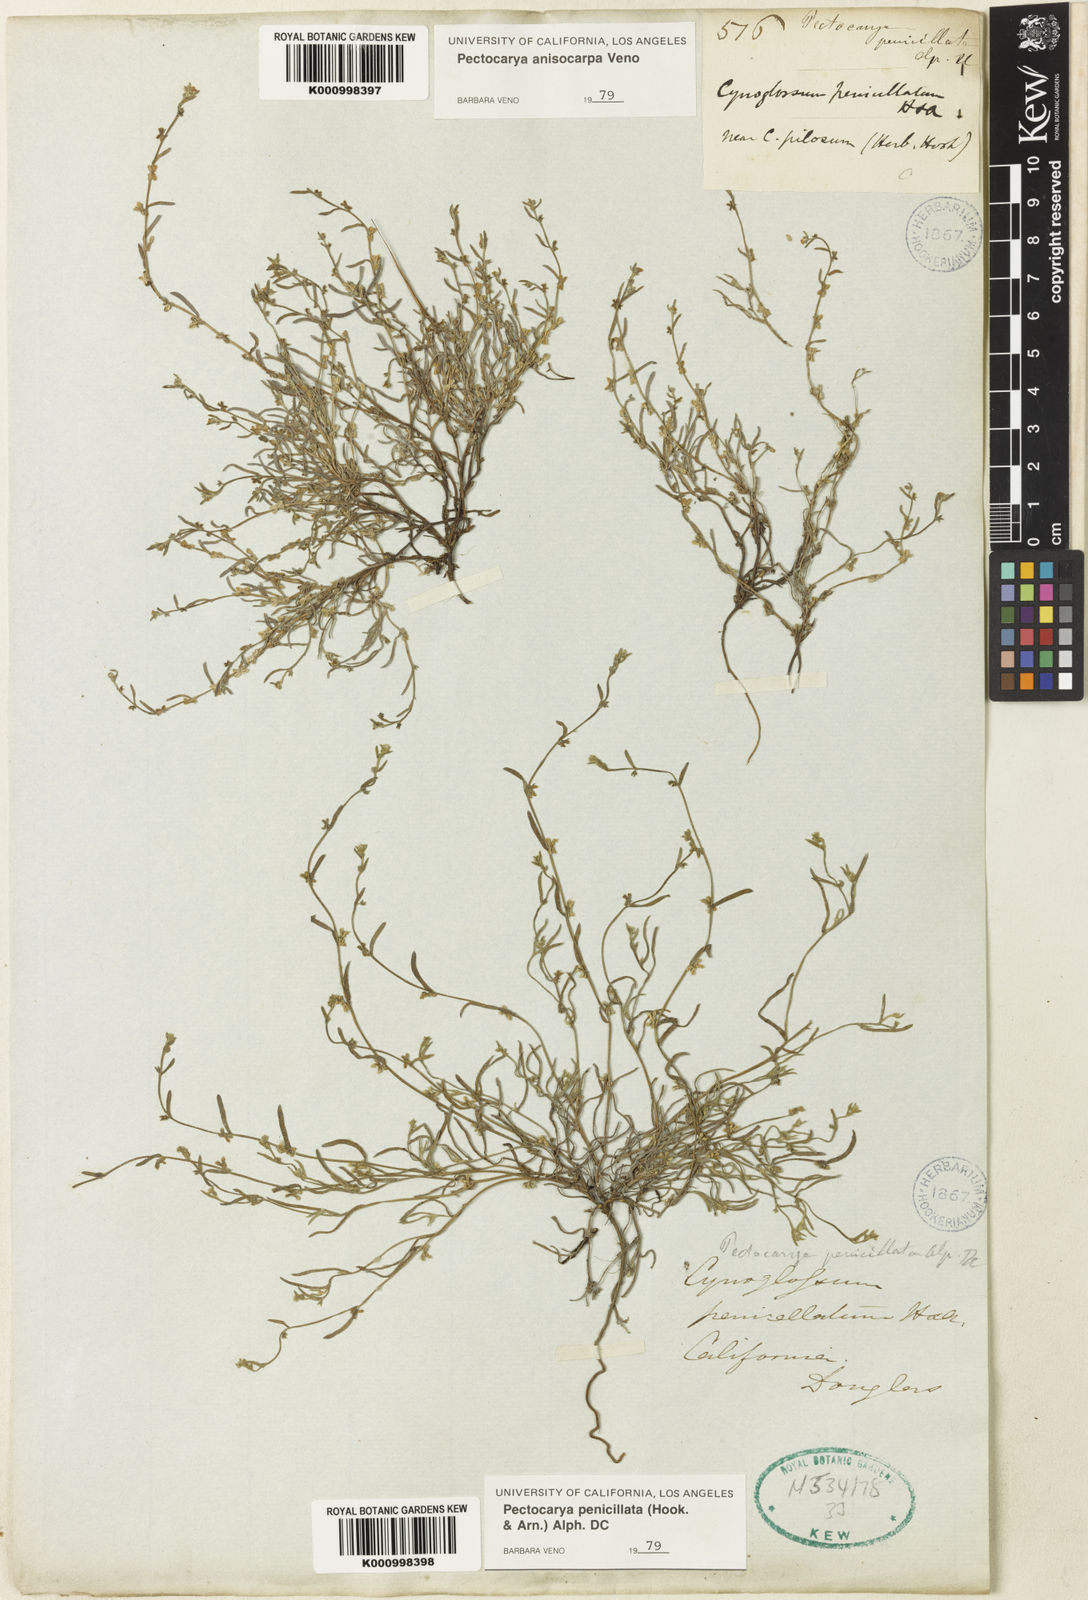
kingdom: Plantae
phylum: Tracheophyta
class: Magnoliopsida
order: Boraginales
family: Boraginaceae
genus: Pectocarya
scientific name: Pectocarya penicillata
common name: Short-leaved combseed
